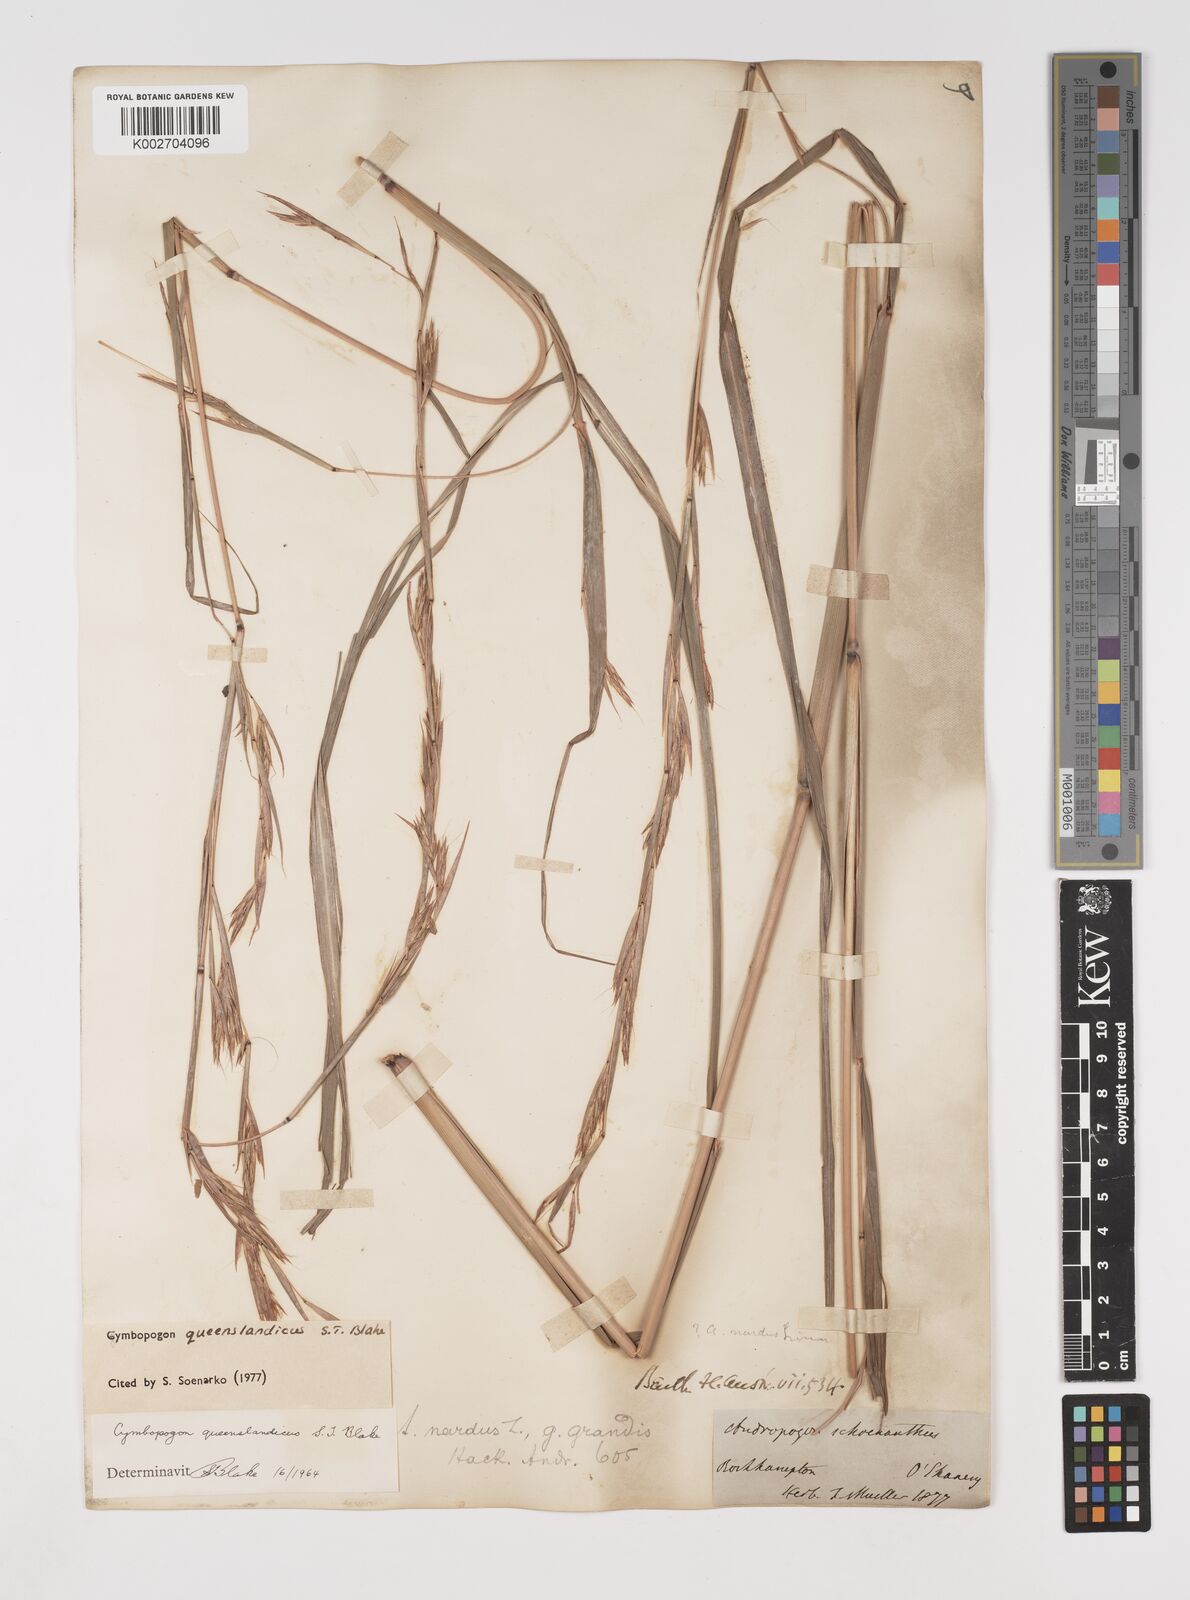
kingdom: Plantae
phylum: Tracheophyta
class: Liliopsida
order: Poales
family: Poaceae
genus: Cymbopogon
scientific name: Cymbopogon queenslandicus
